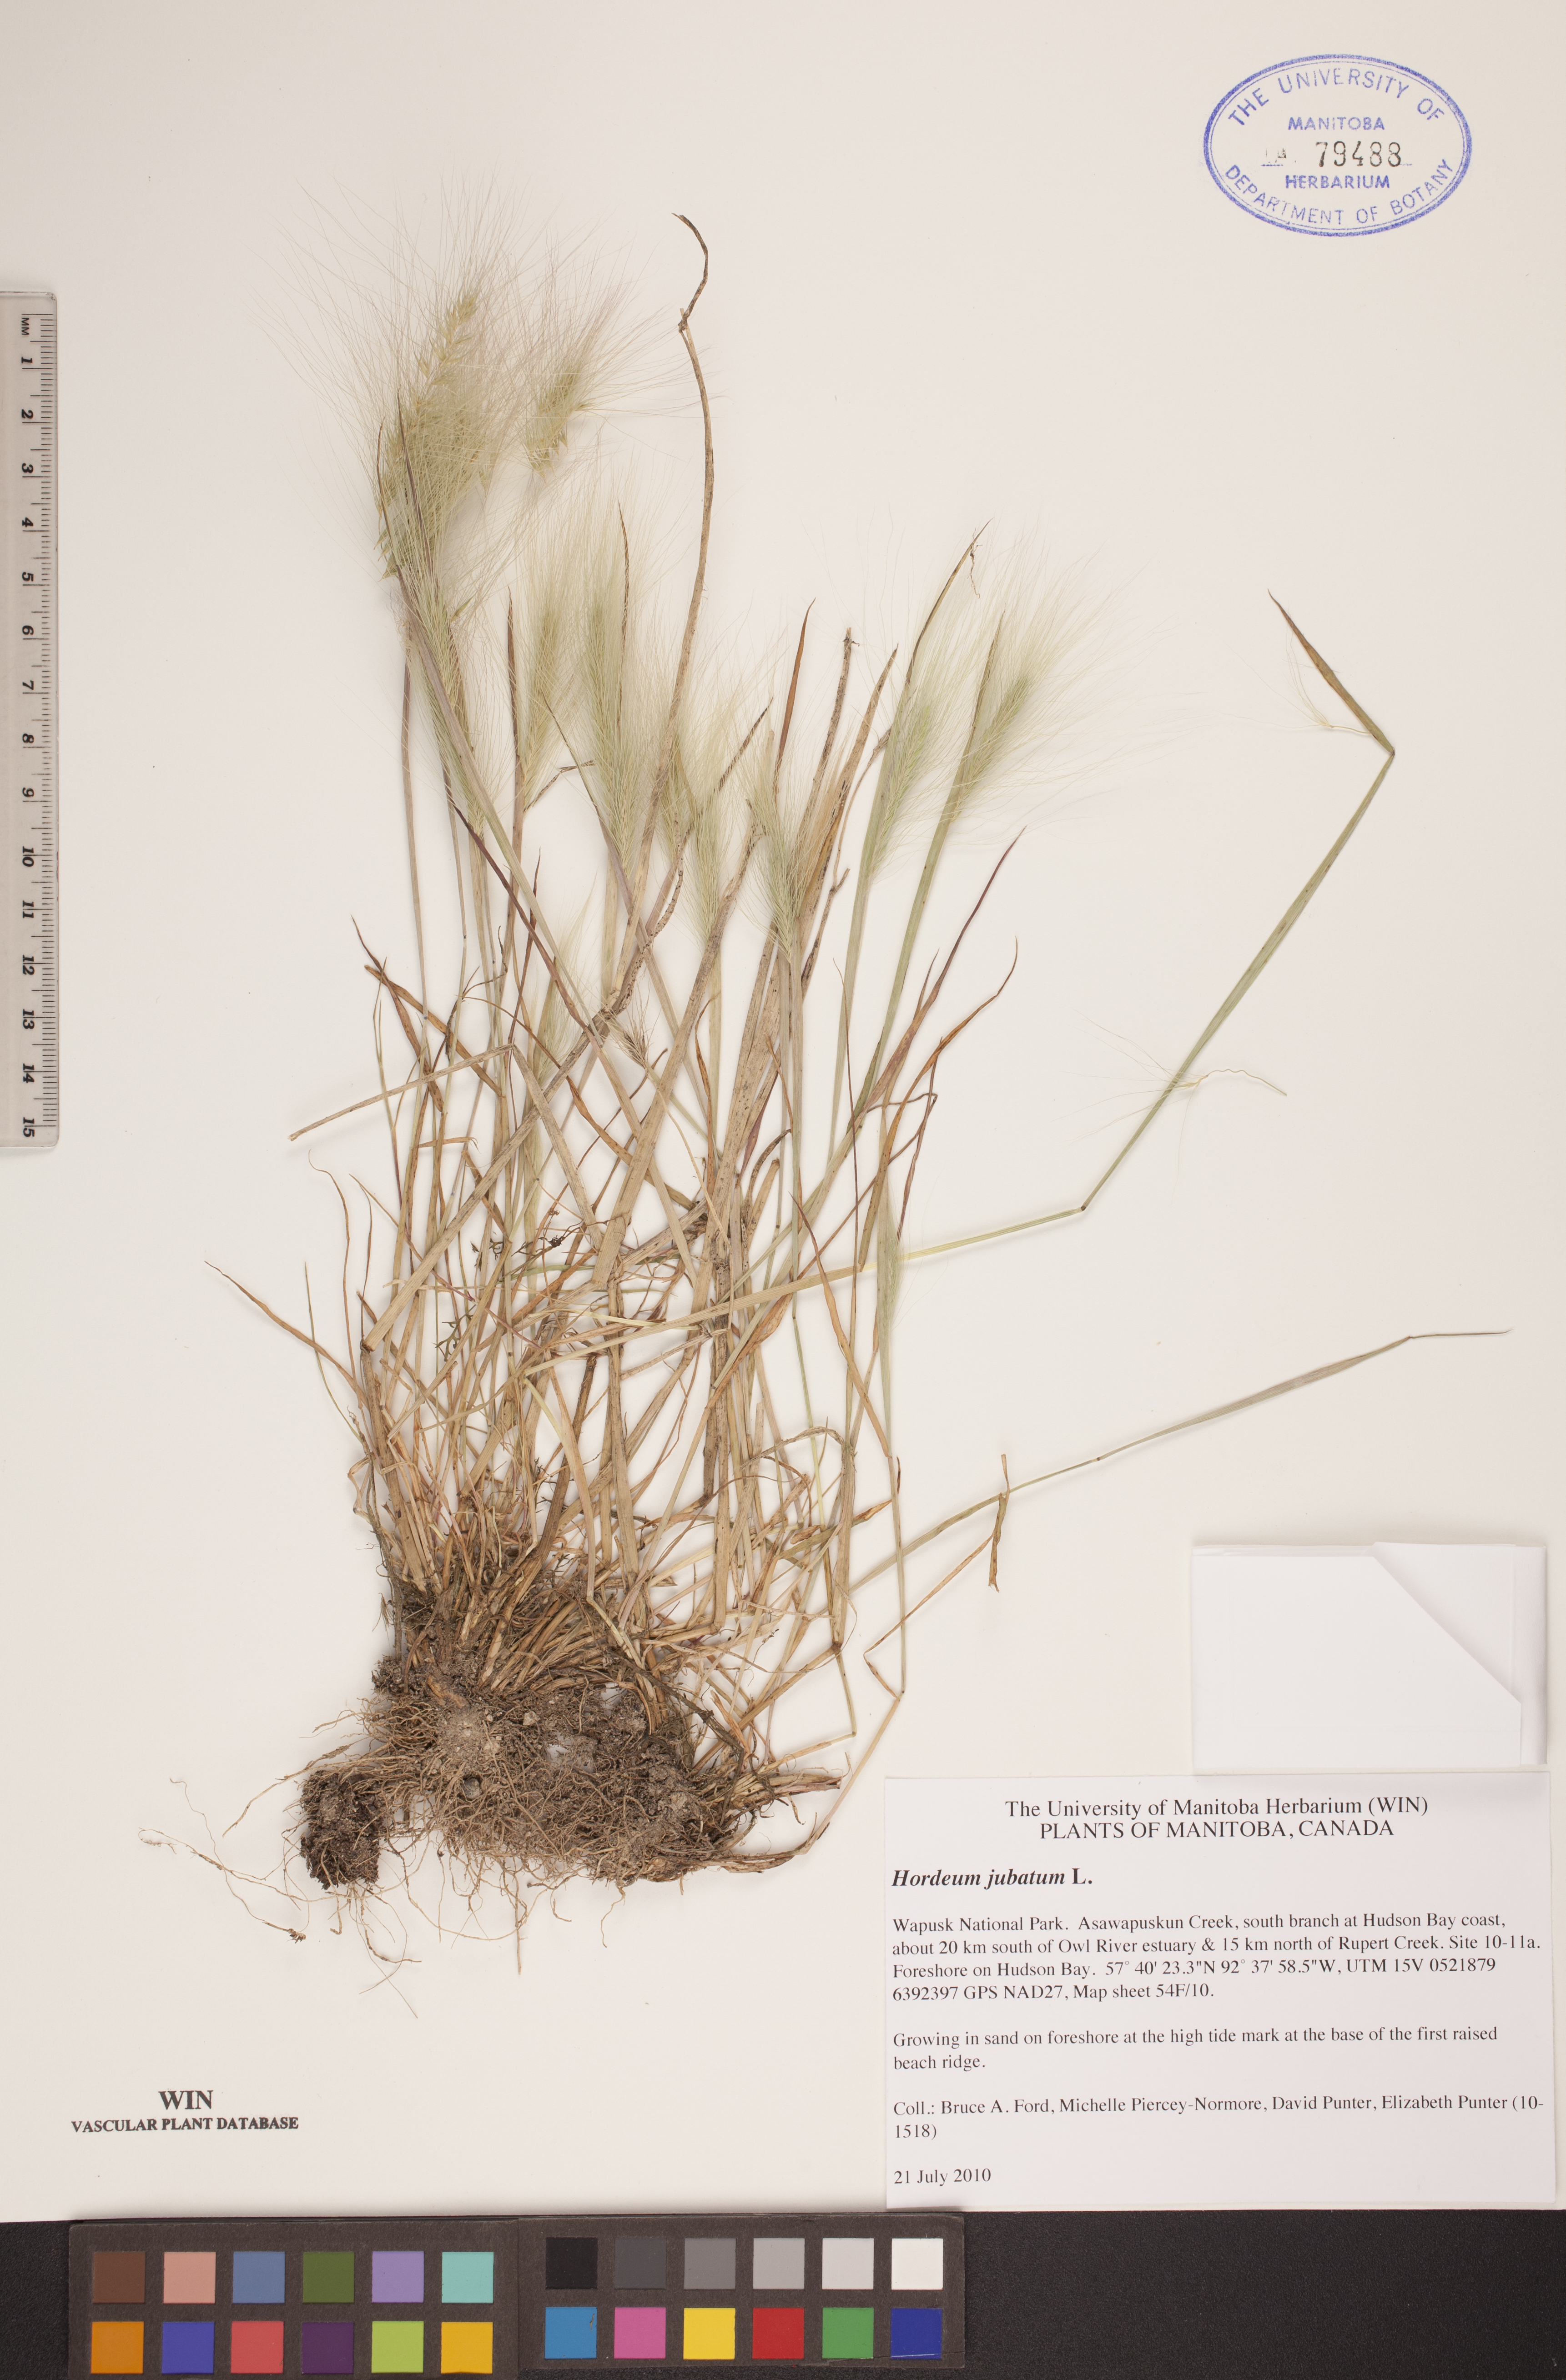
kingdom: Plantae
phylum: Tracheophyta
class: Liliopsida
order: Poales
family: Poaceae
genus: Hordeum
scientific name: Hordeum jubatum
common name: Foxtail barley
